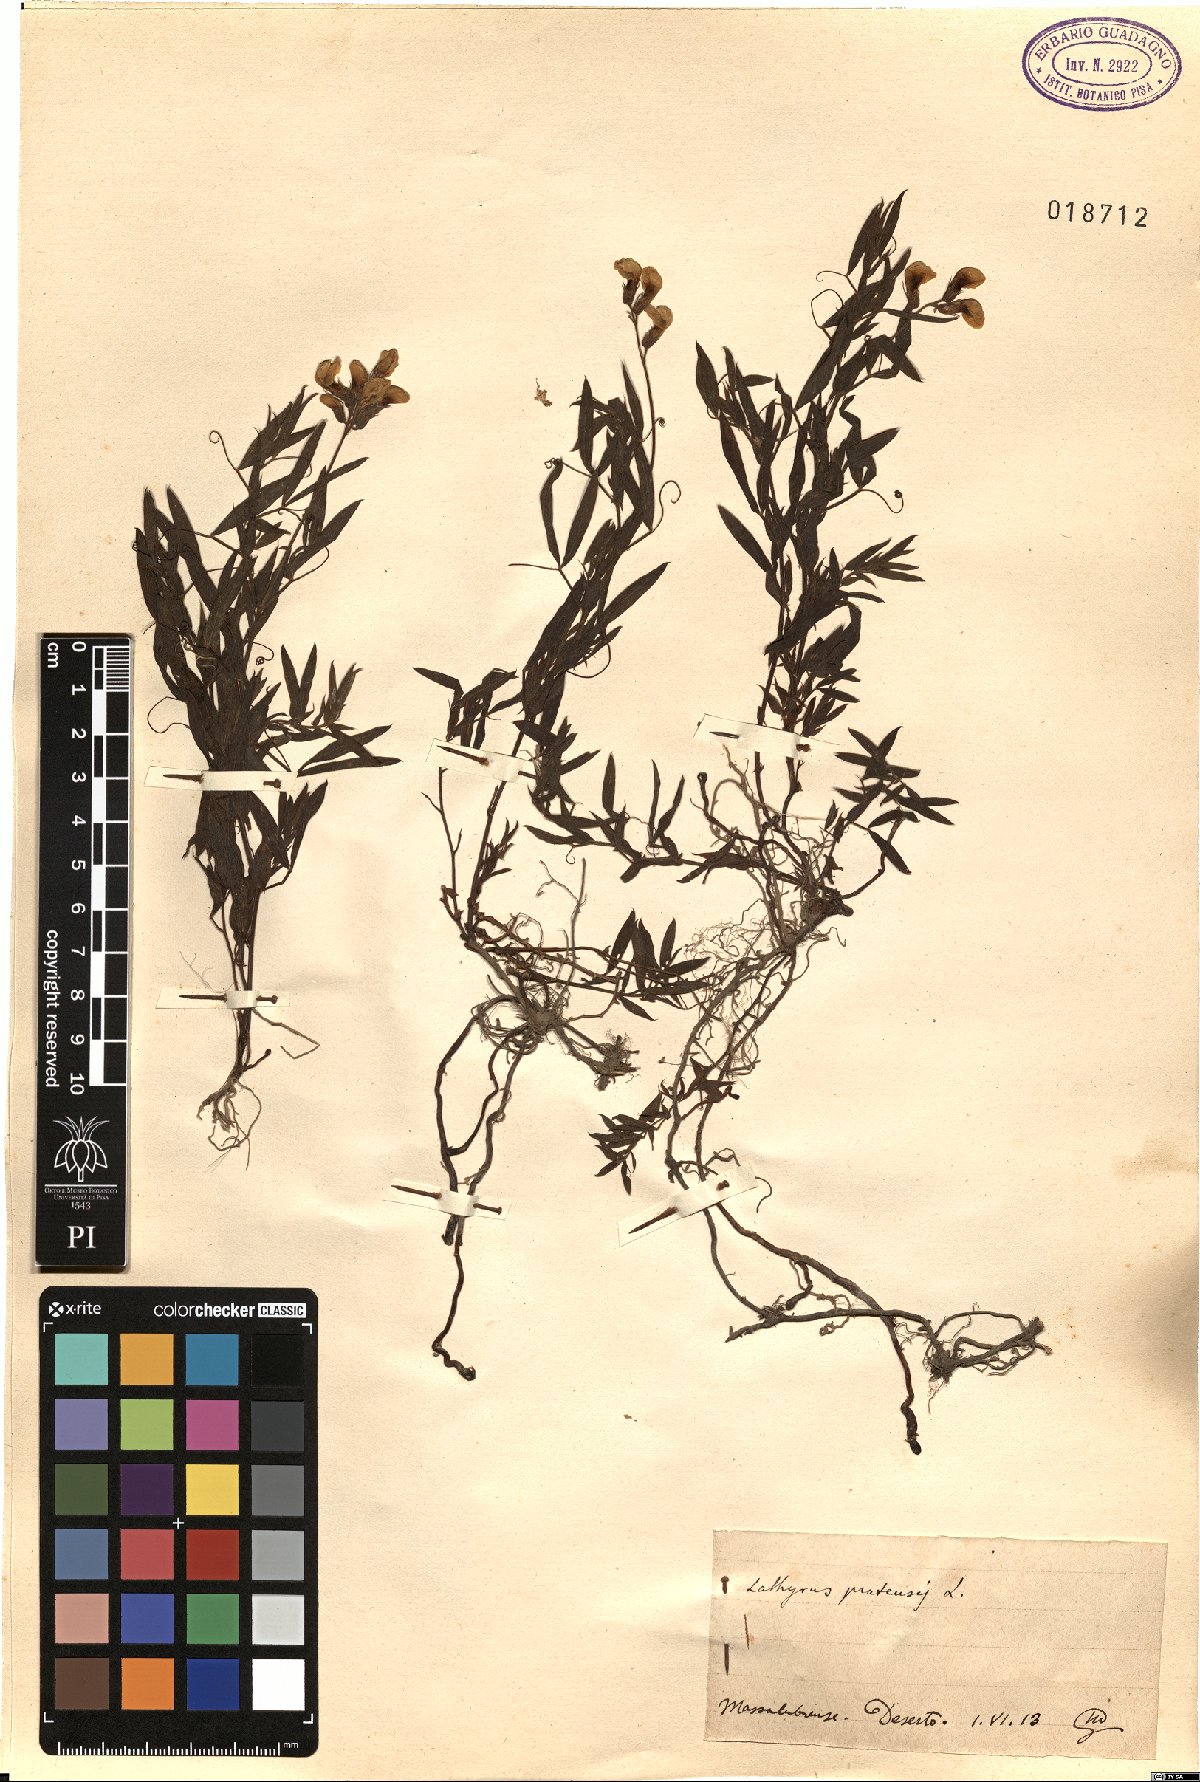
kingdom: Plantae
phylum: Tracheophyta
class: Magnoliopsida
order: Fabales
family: Fabaceae
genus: Lathyrus
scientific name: Lathyrus pratensis
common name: Meadow vetchling
